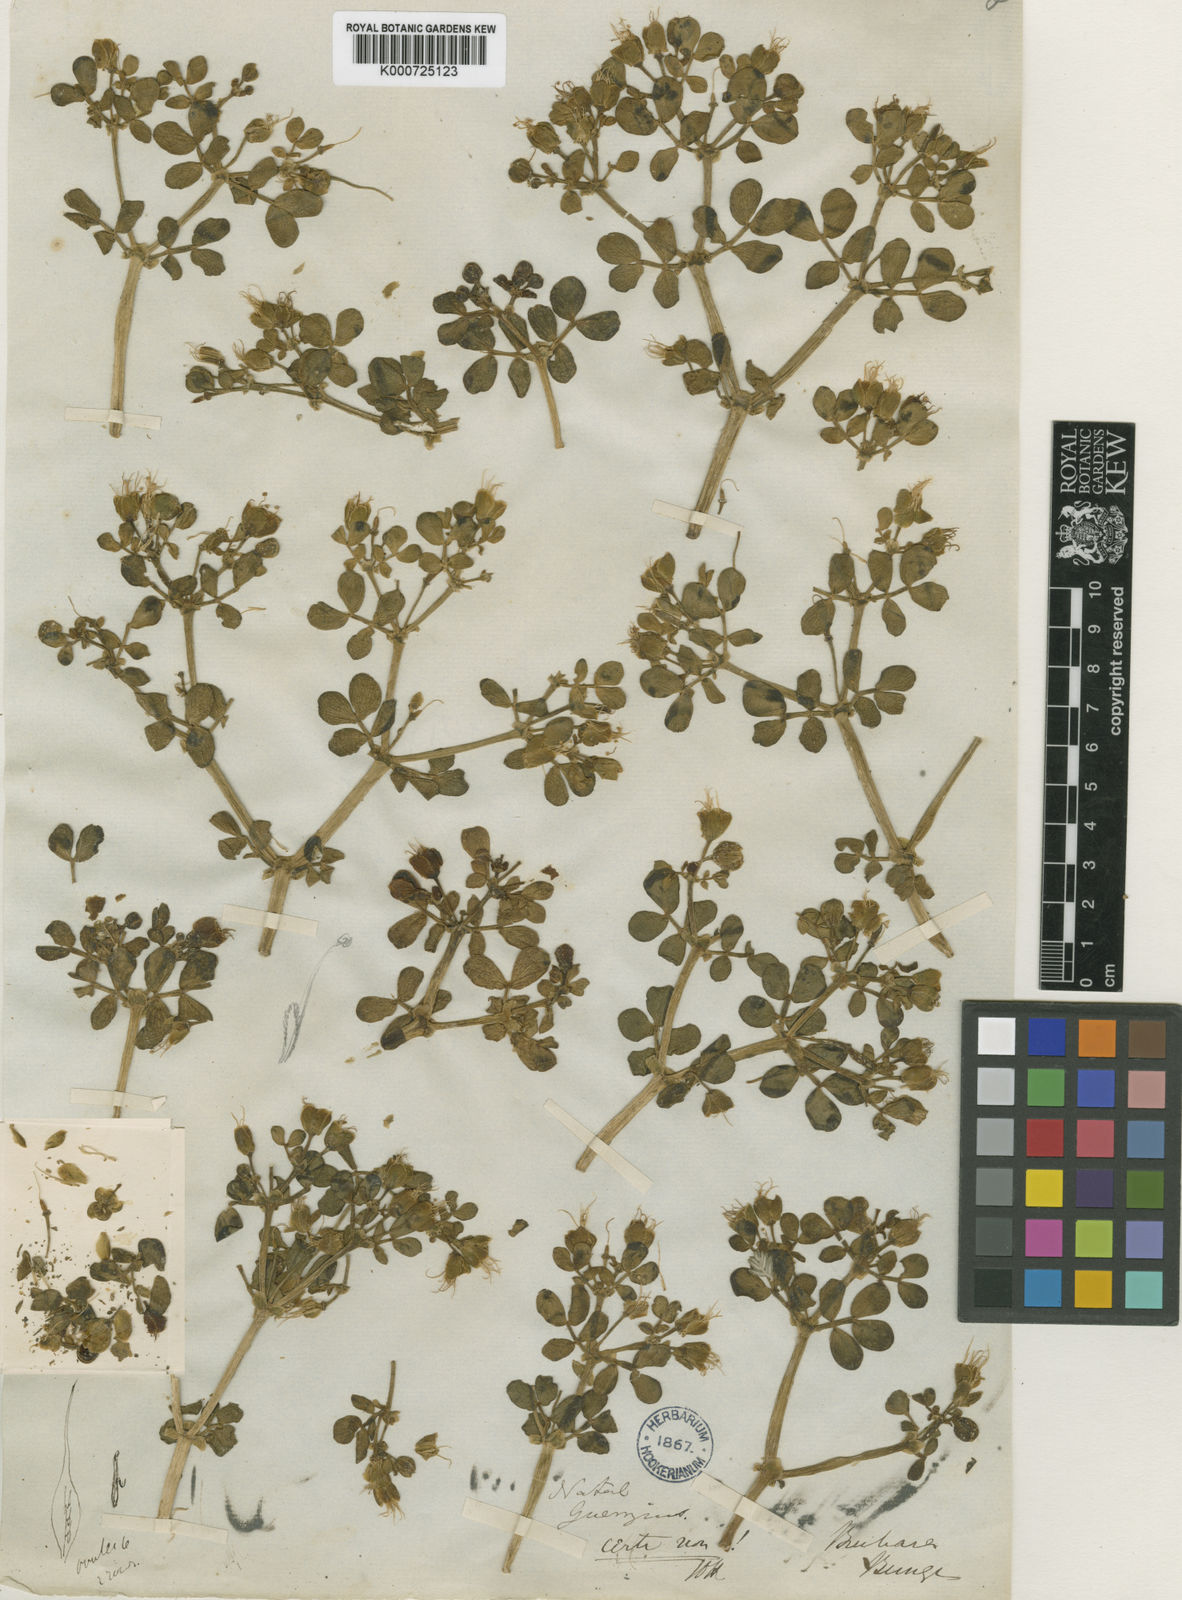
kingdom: Plantae
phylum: Tracheophyta
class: Magnoliopsida
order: Zygophyllales
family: Zygophyllaceae
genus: Miltianthus
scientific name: Miltianthus portulacoides
